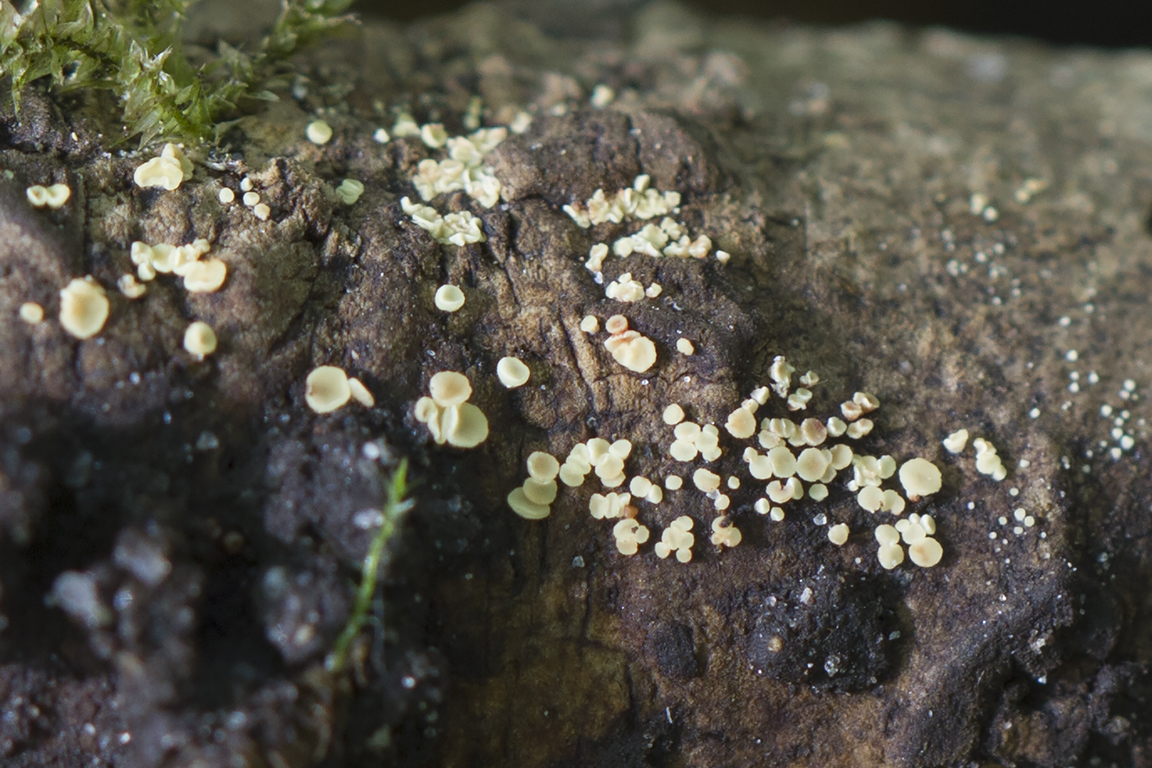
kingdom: Fungi
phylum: Ascomycota
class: Leotiomycetes
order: Helotiales
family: Helotiaceae
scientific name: Helotiaceae
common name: stilkskivefamilien
